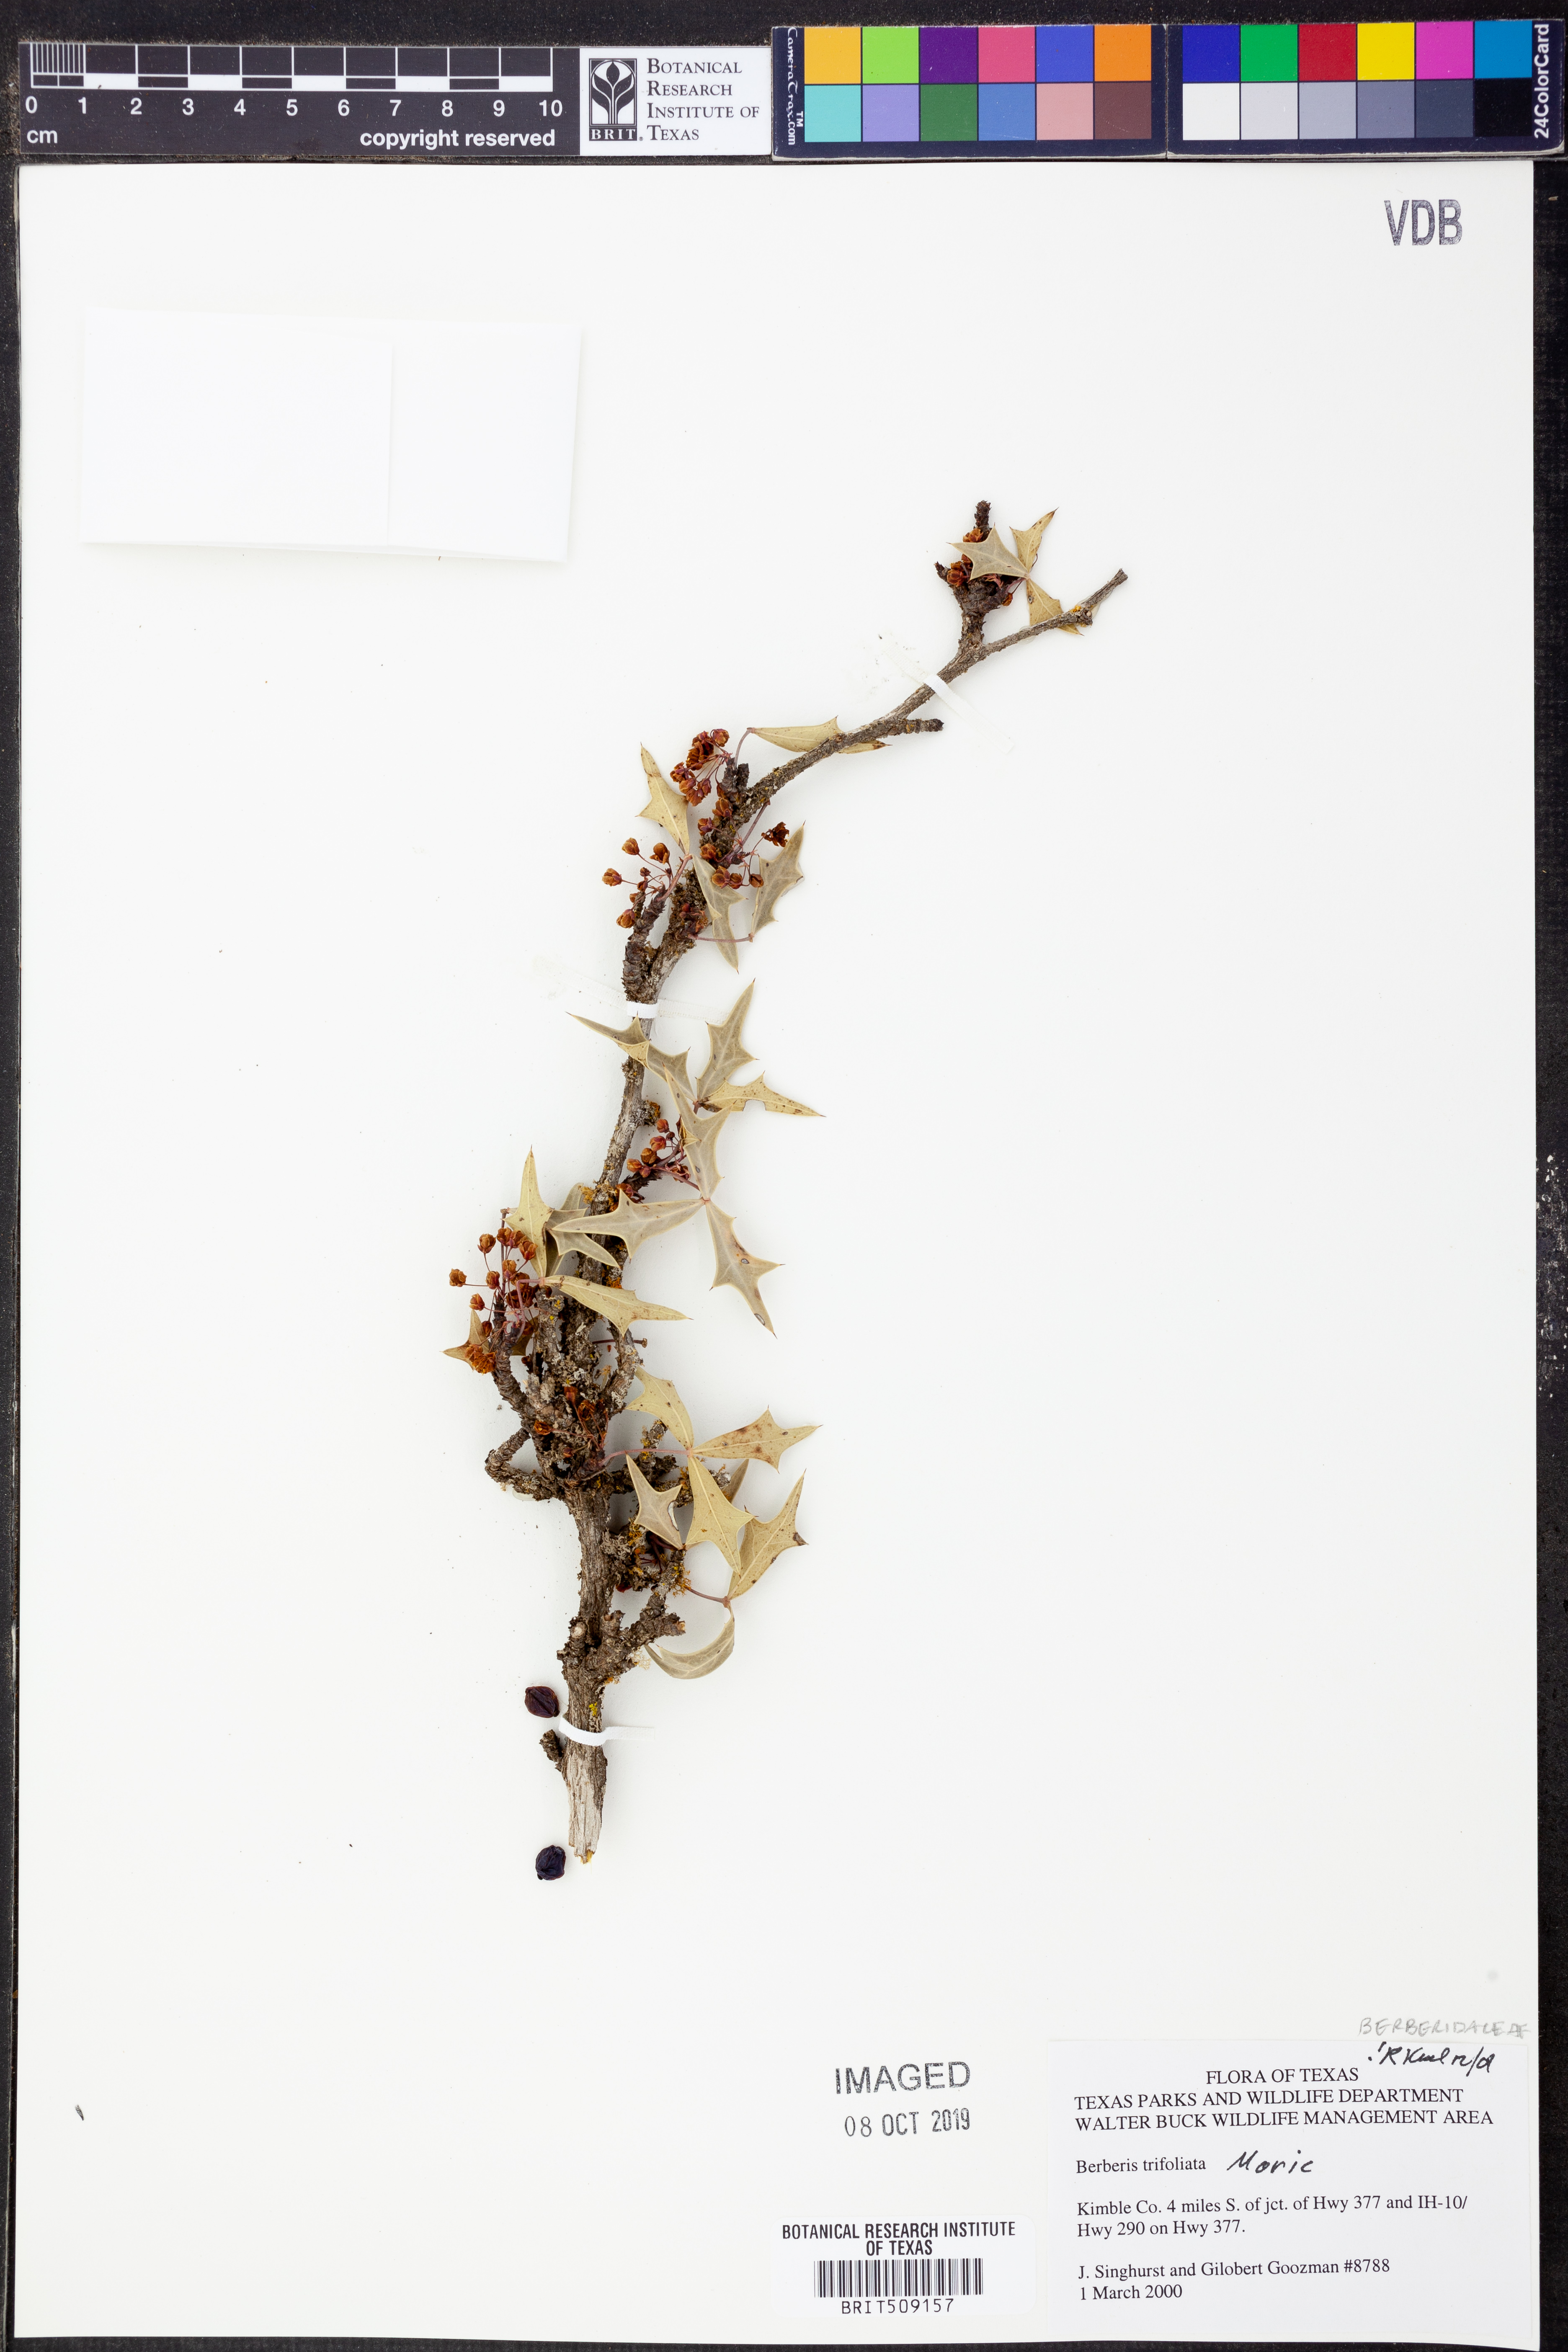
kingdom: Plantae
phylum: Tracheophyta
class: Magnoliopsida
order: Ranunculales
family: Berberidaceae
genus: Alloberberis
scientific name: Alloberberis fremontii
